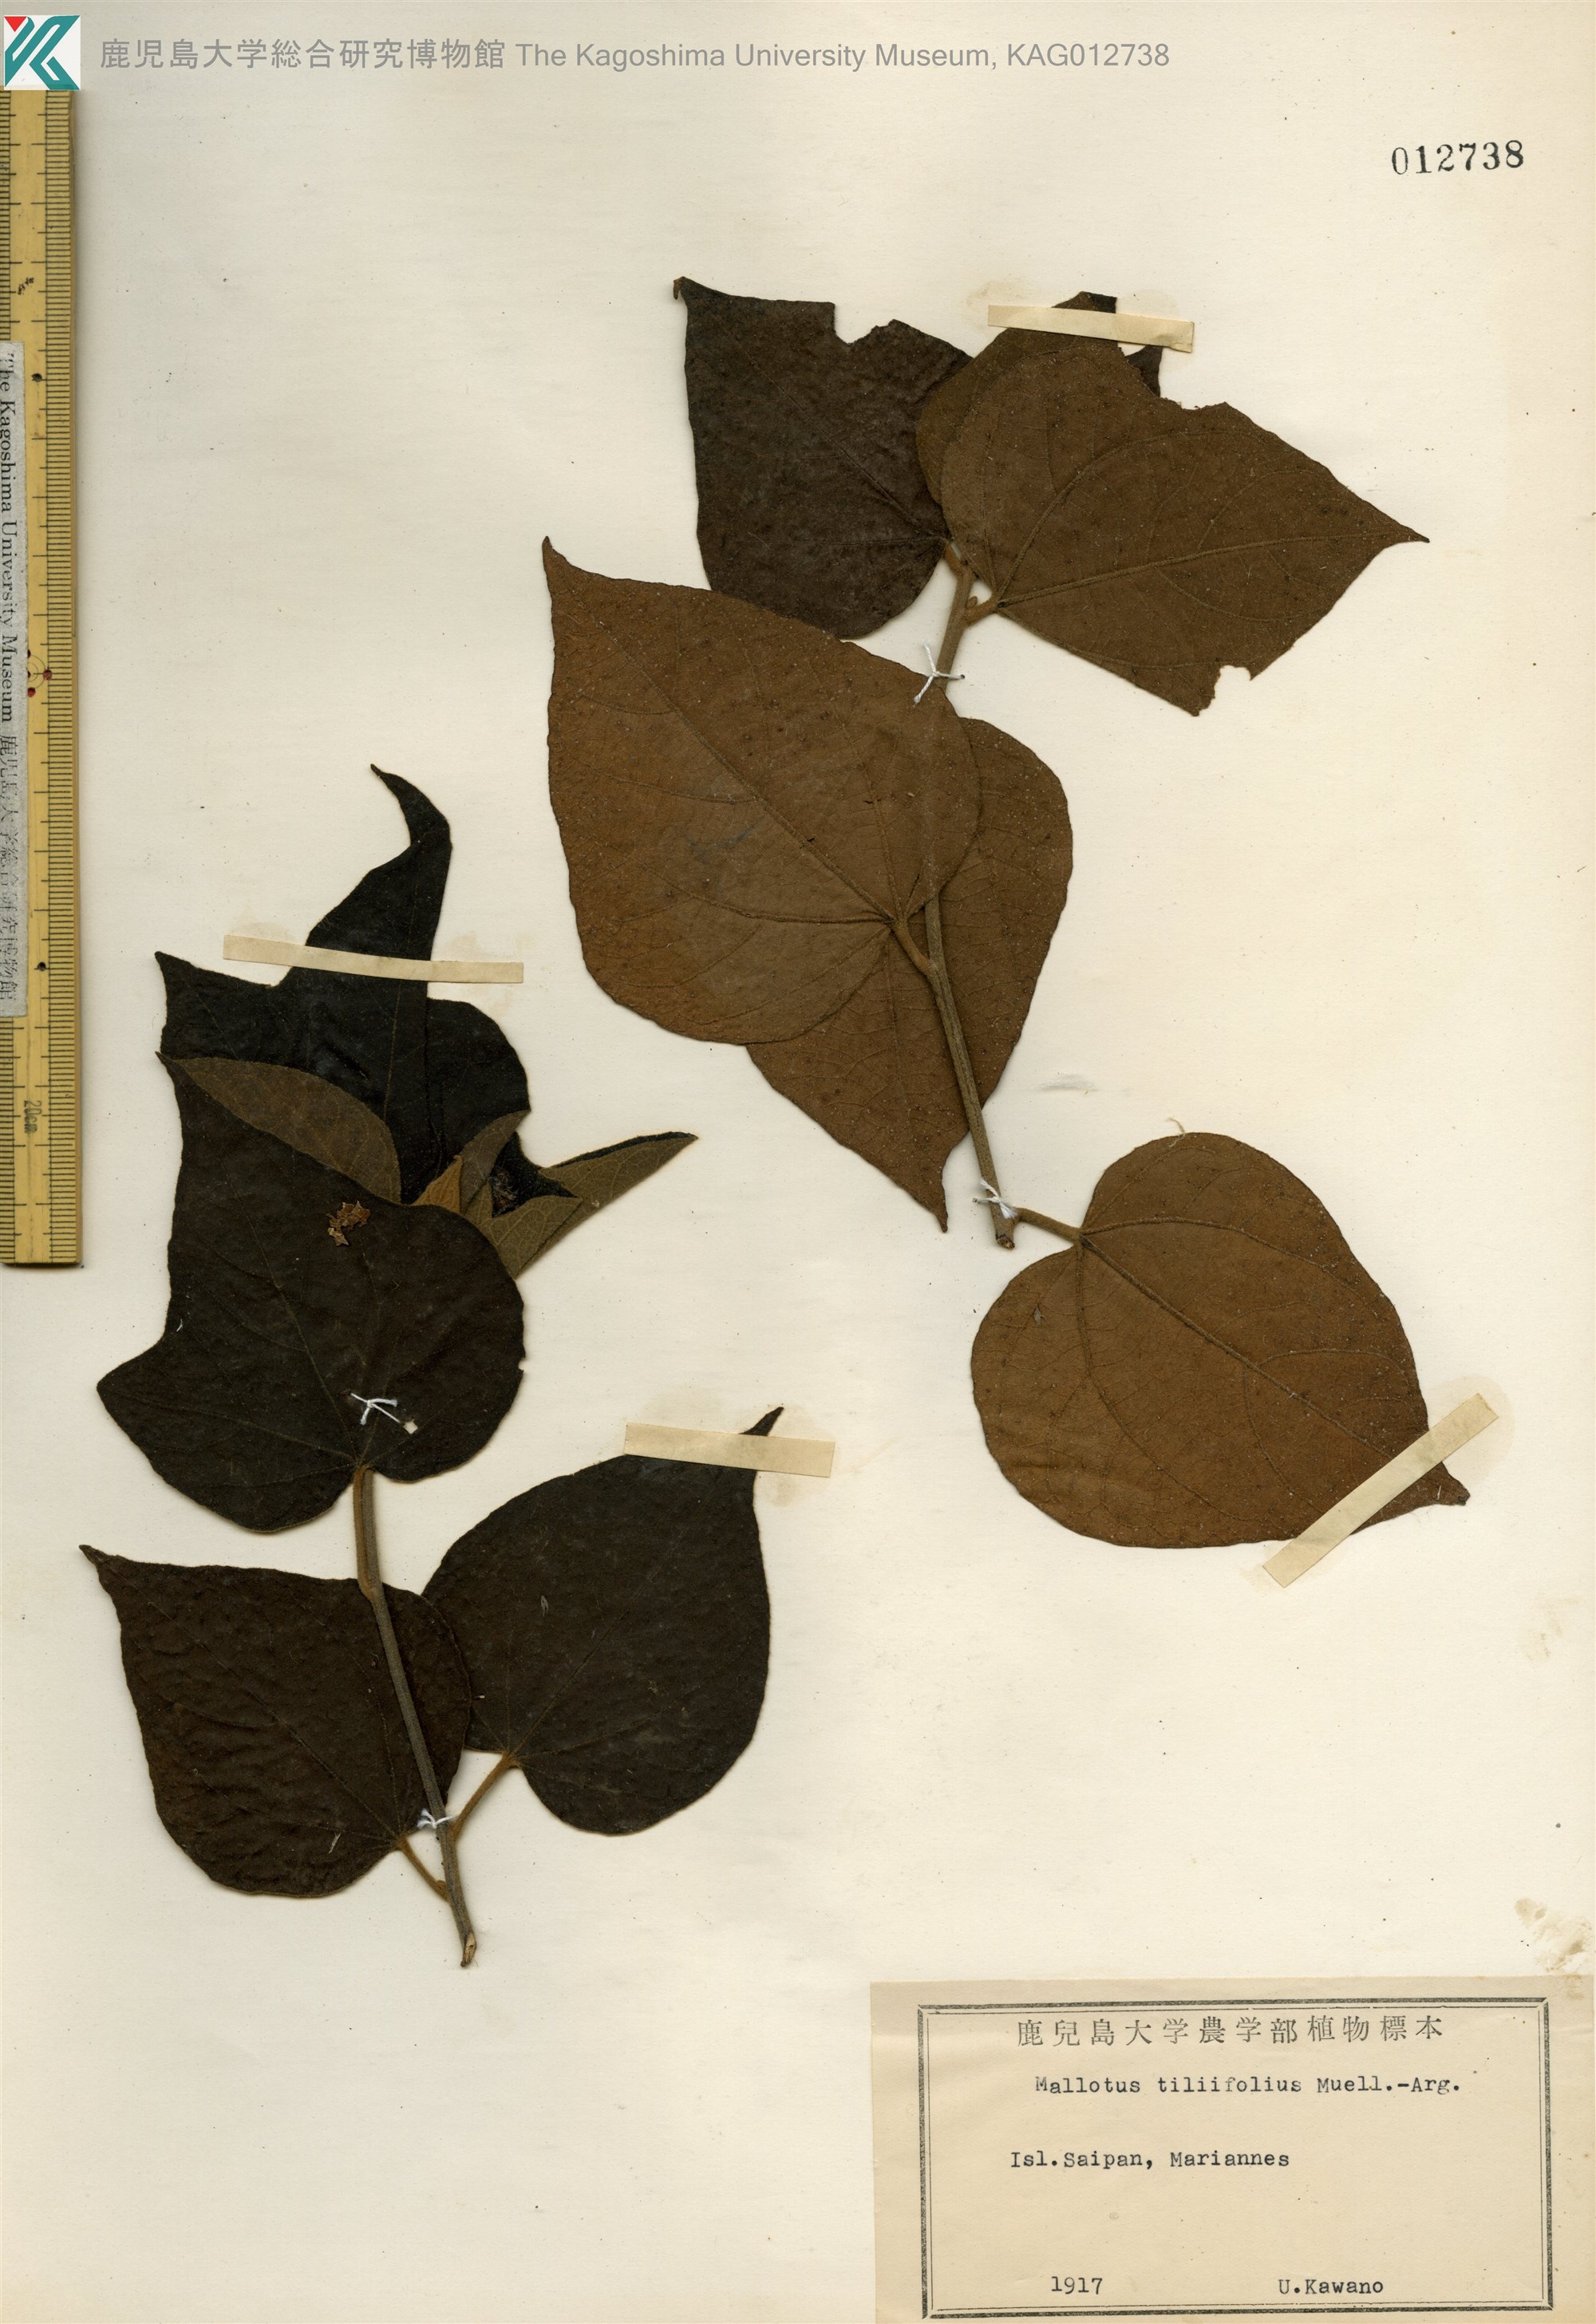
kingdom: Plantae
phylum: Tracheophyta
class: Magnoliopsida
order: Malpighiales
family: Euphorbiaceae
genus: Mallotus
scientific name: Mallotus tiliifolius
